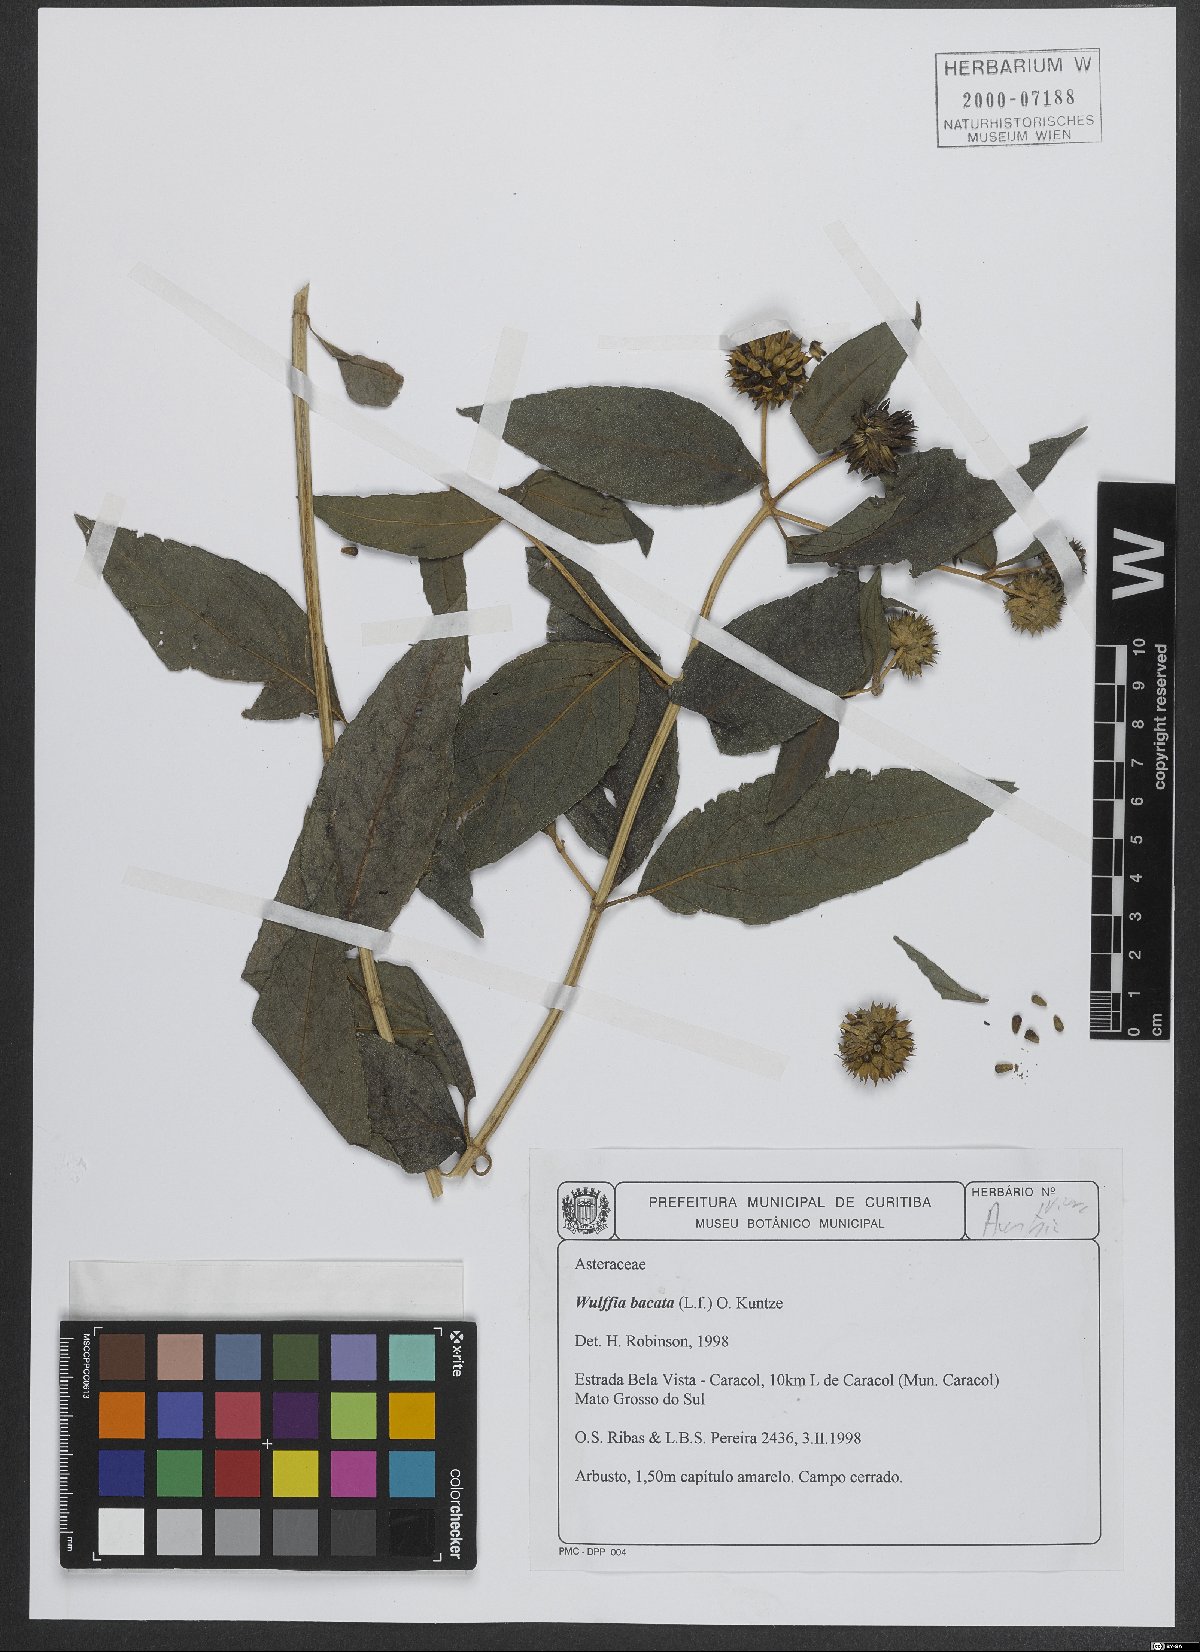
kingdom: Plantae
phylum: Tracheophyta
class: Magnoliopsida
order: Asterales
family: Asteraceae
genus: Tilesia
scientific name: Tilesia baccata
